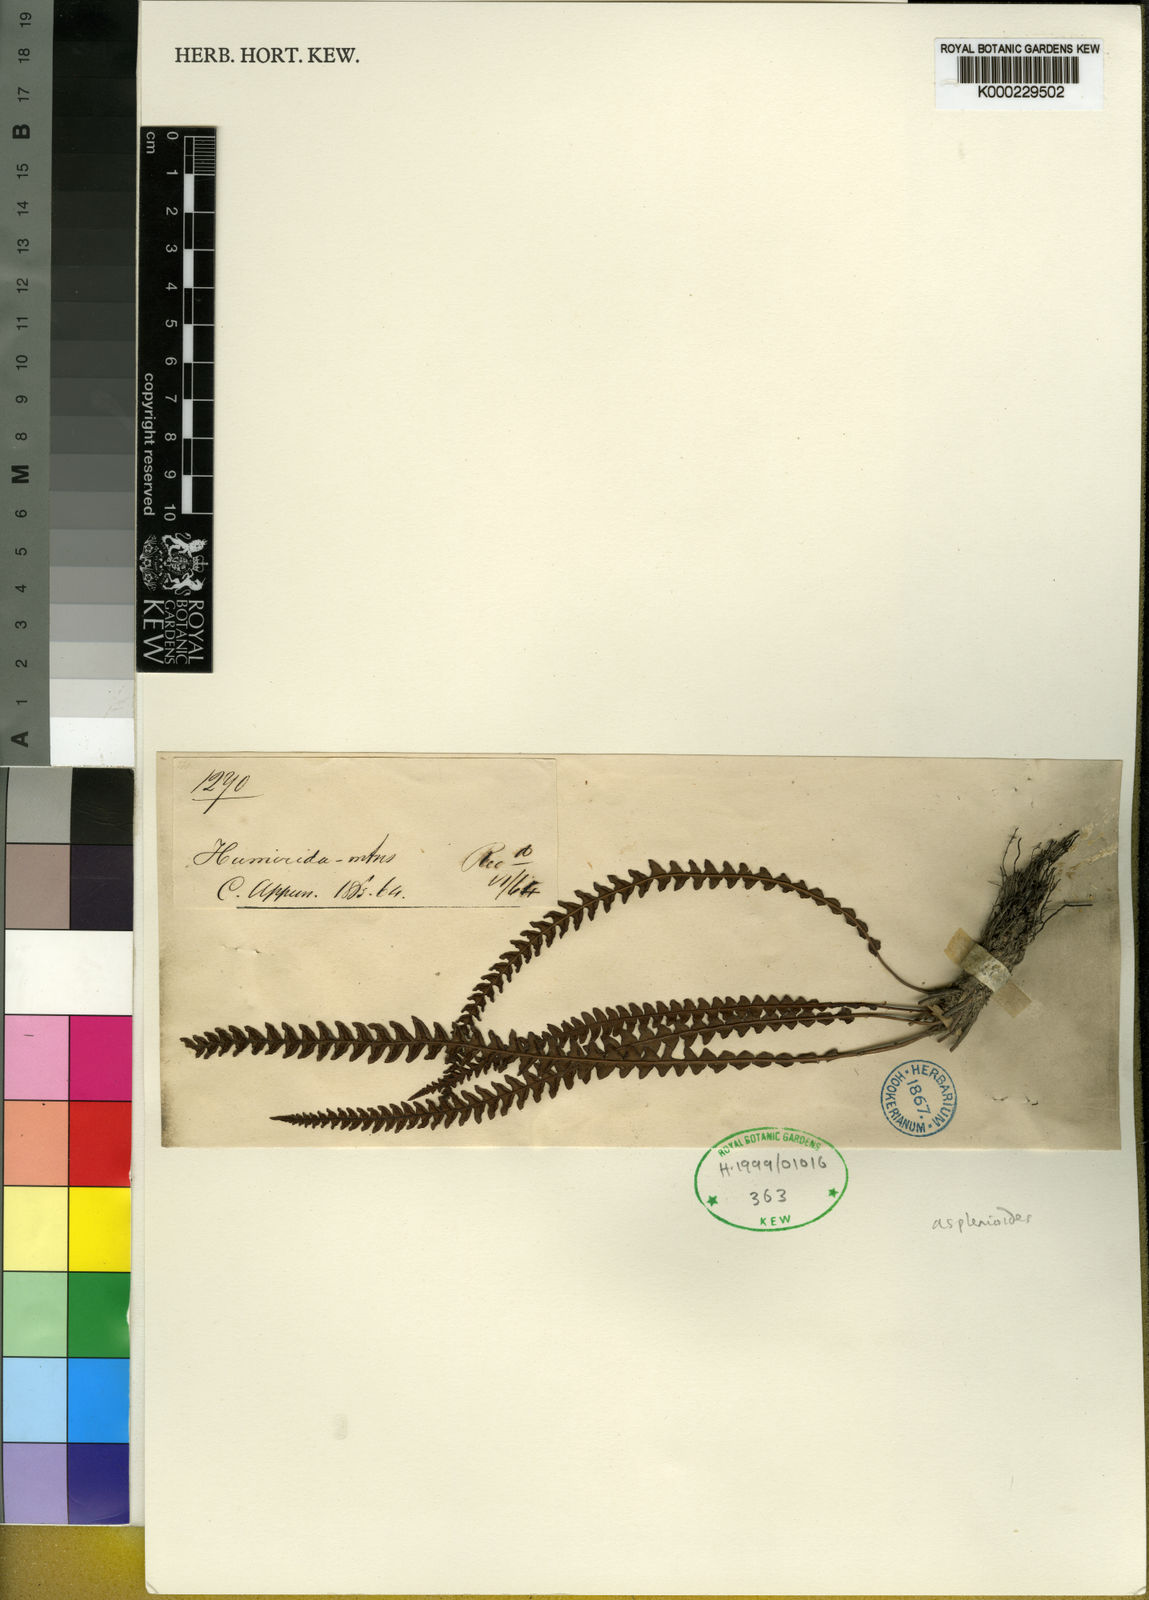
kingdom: Plantae
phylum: Tracheophyta
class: Polypodiopsida
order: Polypodiales
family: Blechnaceae
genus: Blechnum
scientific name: Blechnum asplenioides
